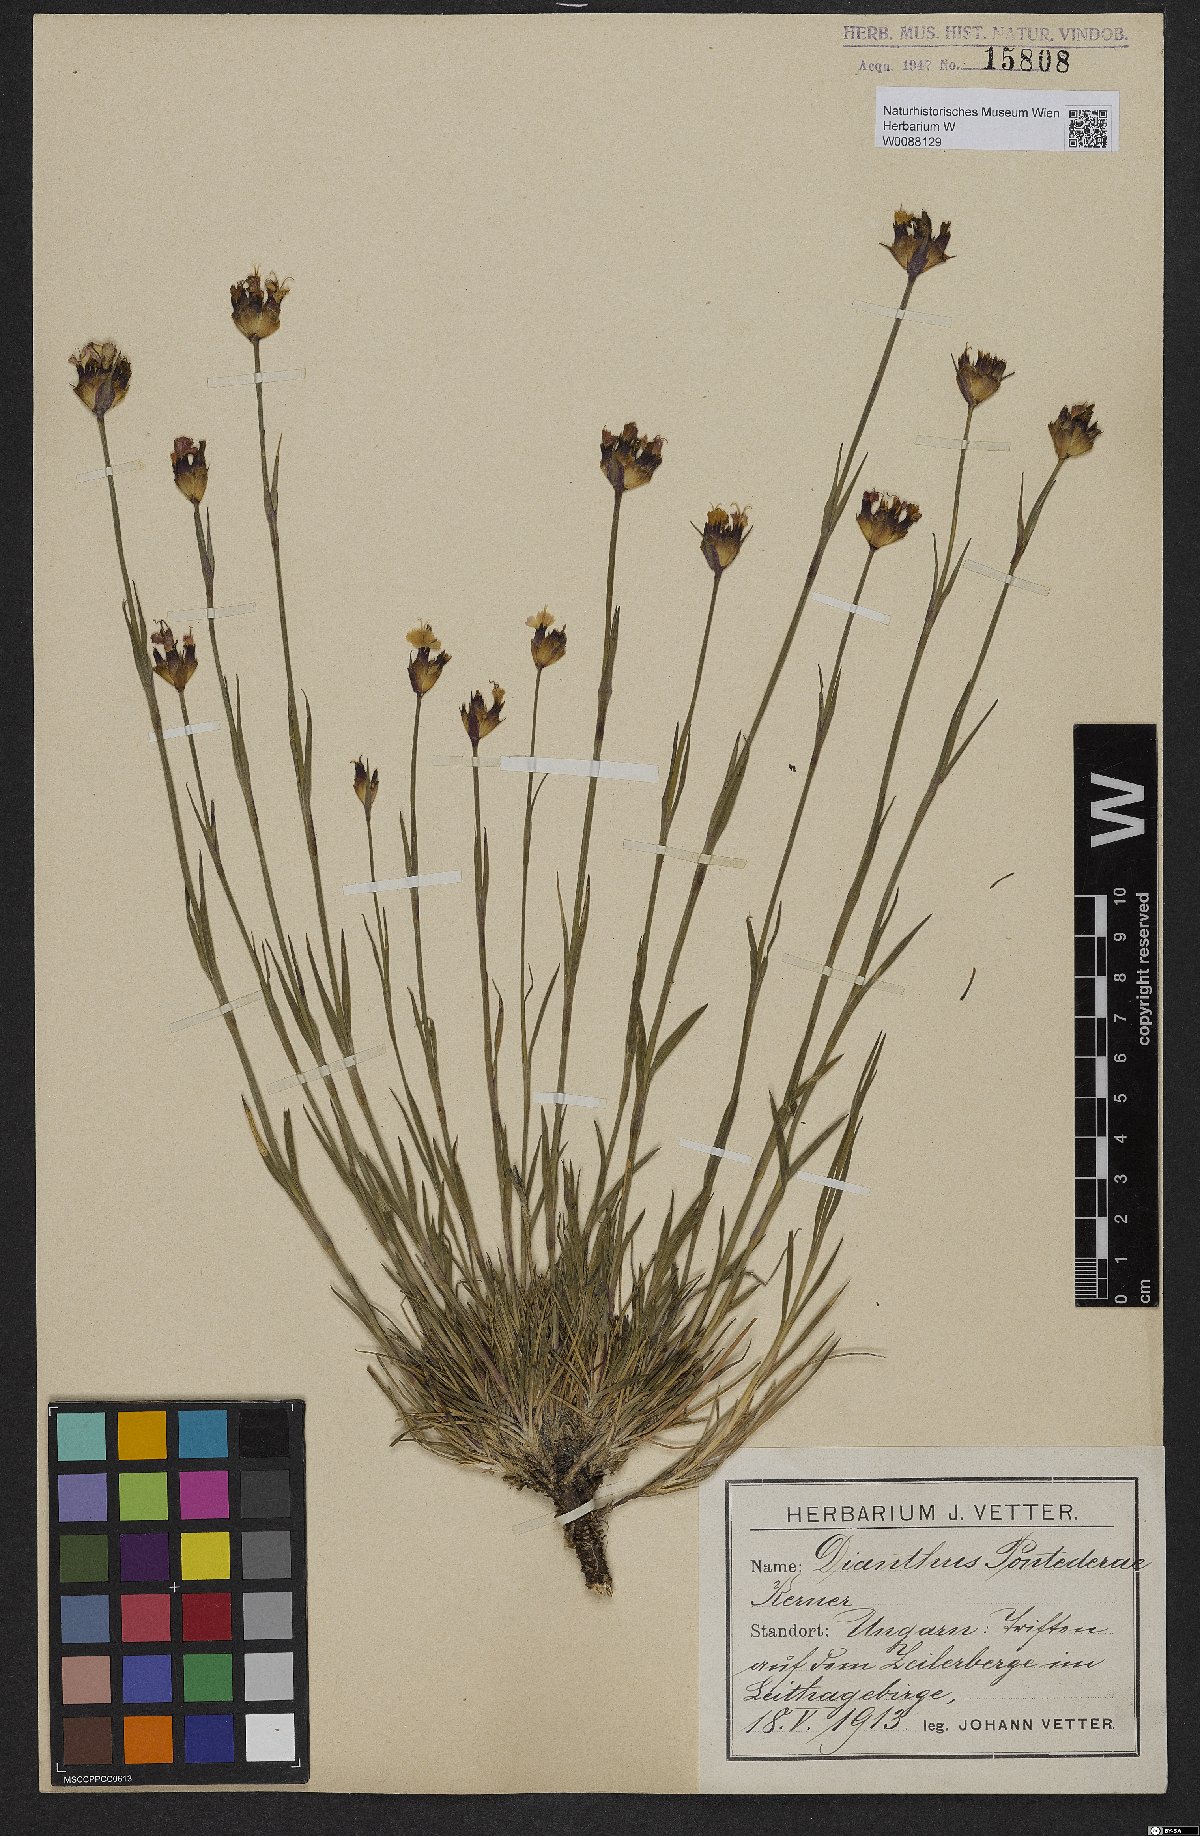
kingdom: Plantae
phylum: Tracheophyta
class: Magnoliopsida
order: Caryophyllales
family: Caryophyllaceae
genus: Dianthus
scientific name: Dianthus pontederae
